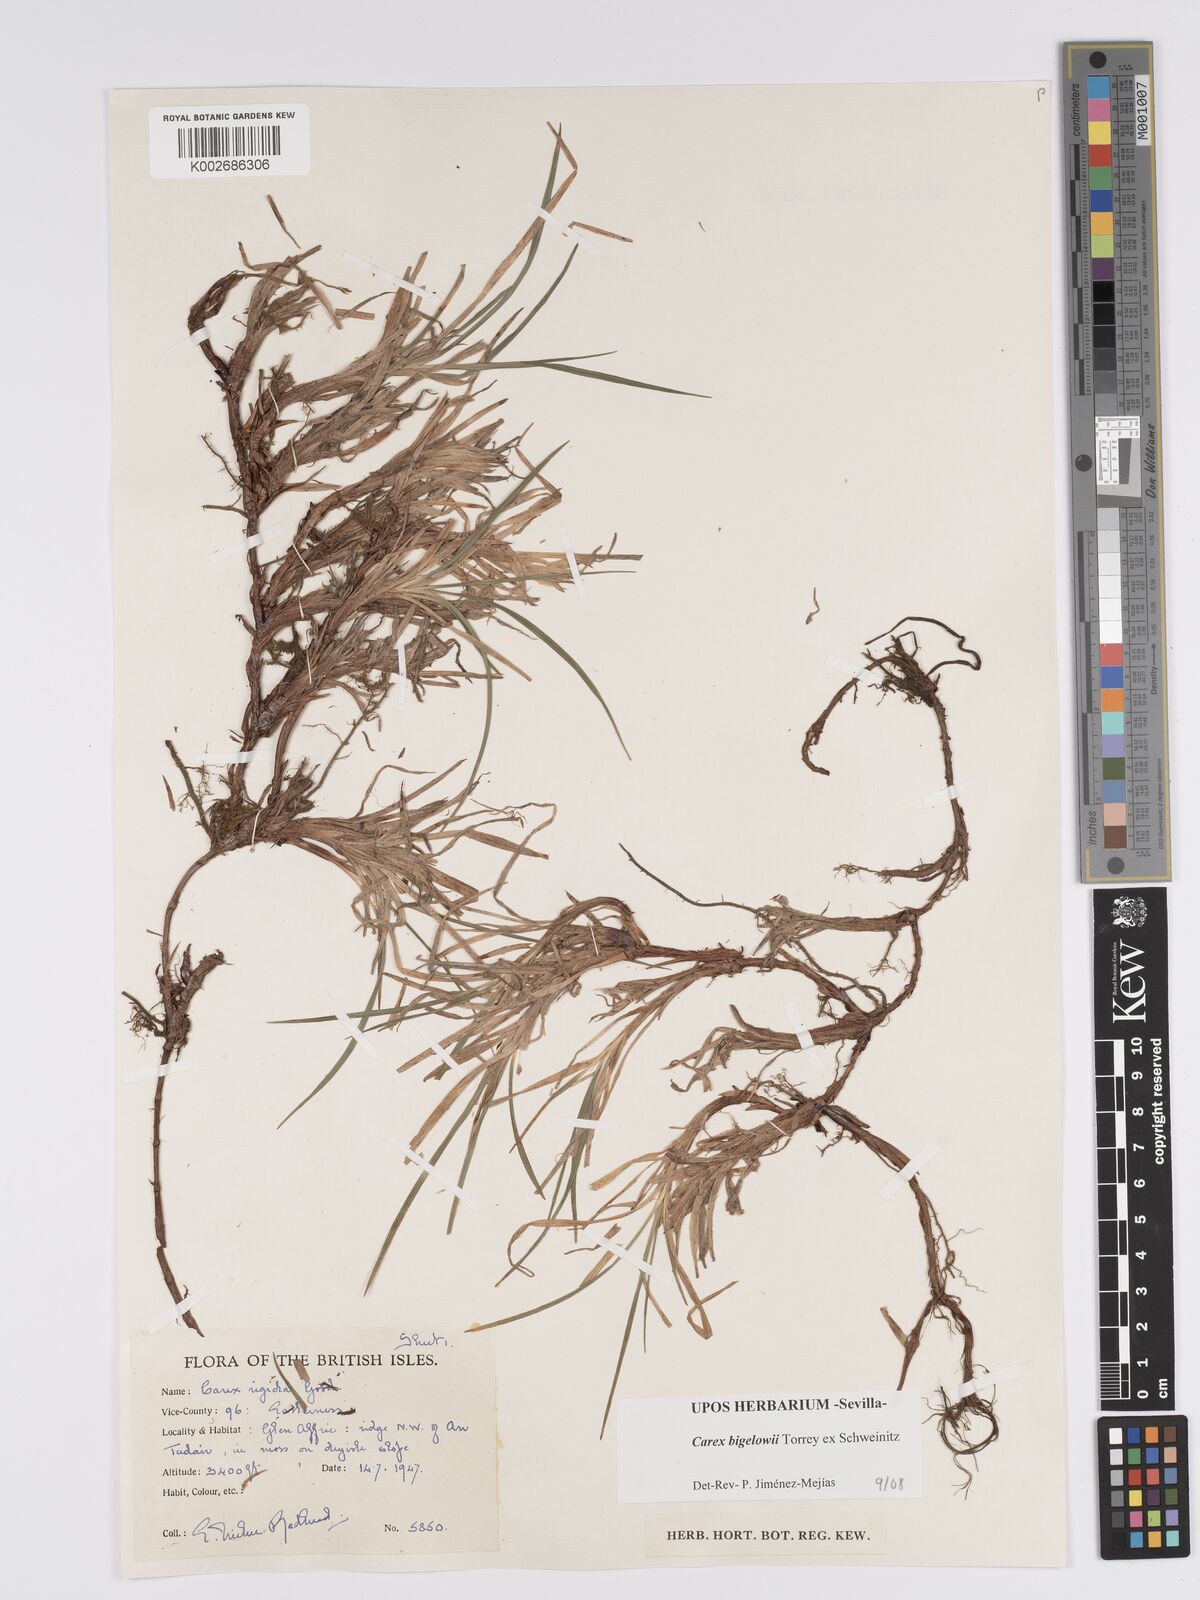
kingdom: Plantae
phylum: Tracheophyta
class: Liliopsida
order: Poales
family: Cyperaceae
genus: Carex
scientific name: Carex bigelowii
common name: Stiff sedge
